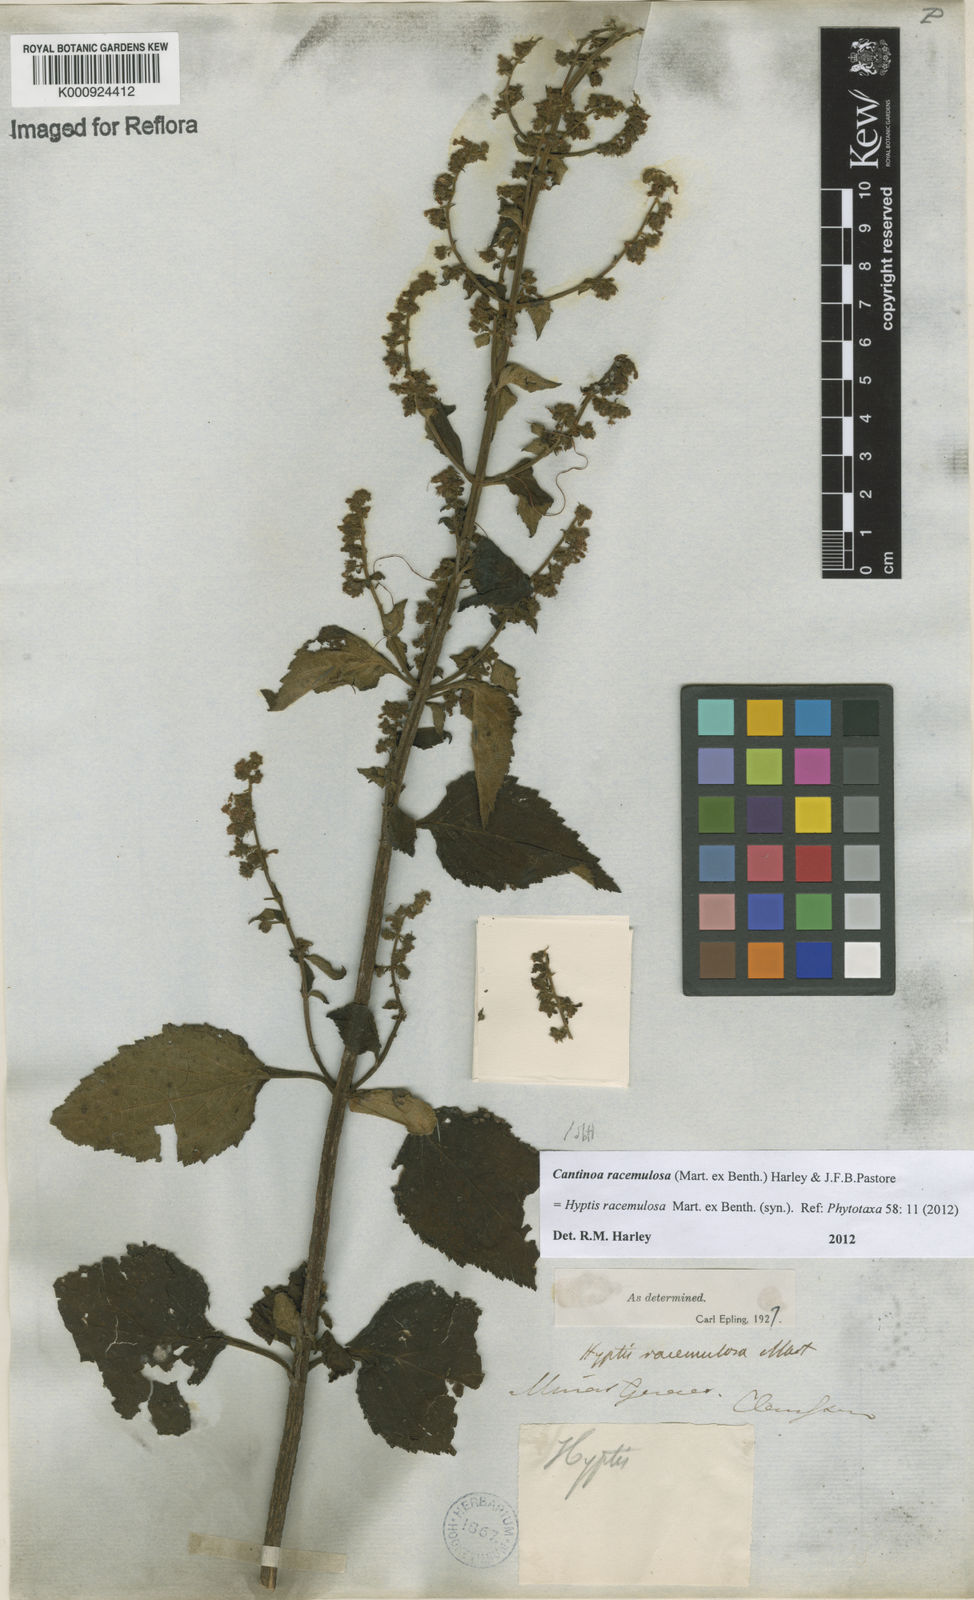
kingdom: Plantae
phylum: Tracheophyta
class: Magnoliopsida
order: Lamiales
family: Lamiaceae
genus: Cantinoa
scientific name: Cantinoa racemulosa
